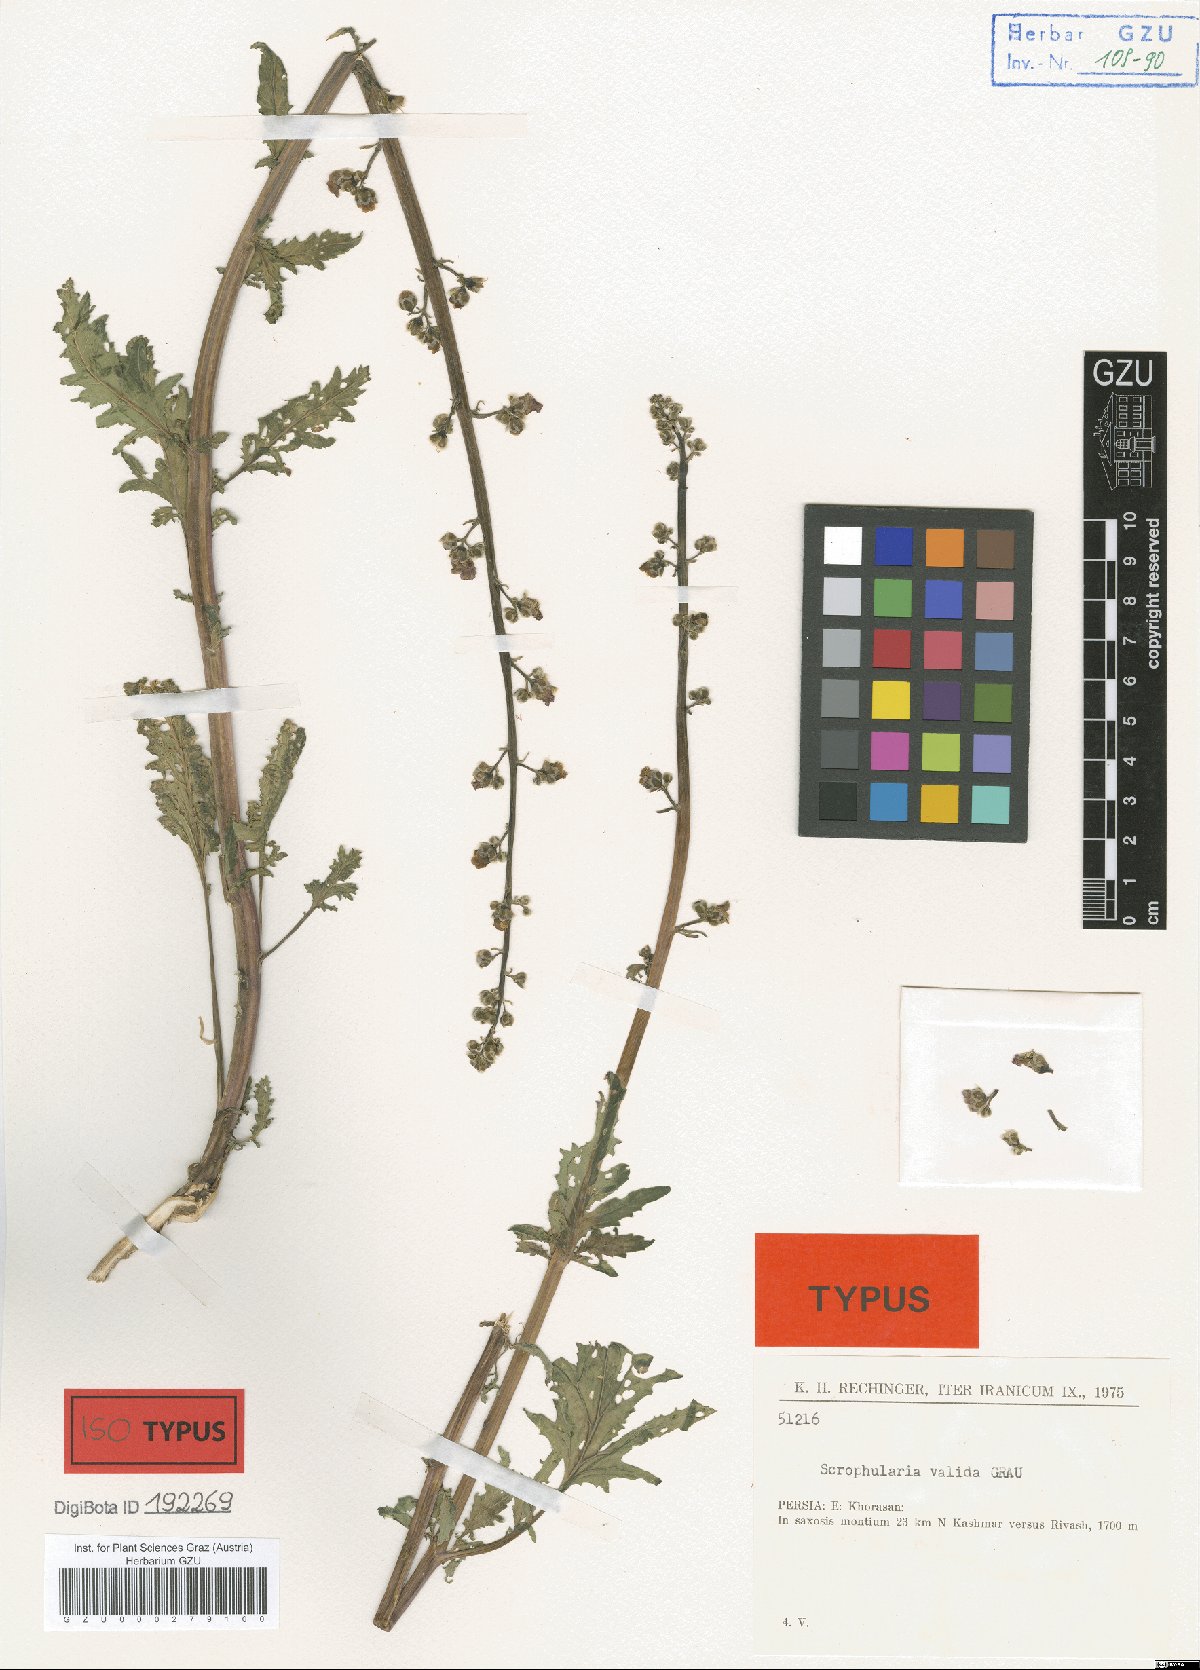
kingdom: Plantae
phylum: Tracheophyta
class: Magnoliopsida
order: Lamiales
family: Scrophulariaceae
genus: Scrophularia
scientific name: Scrophularia valida
